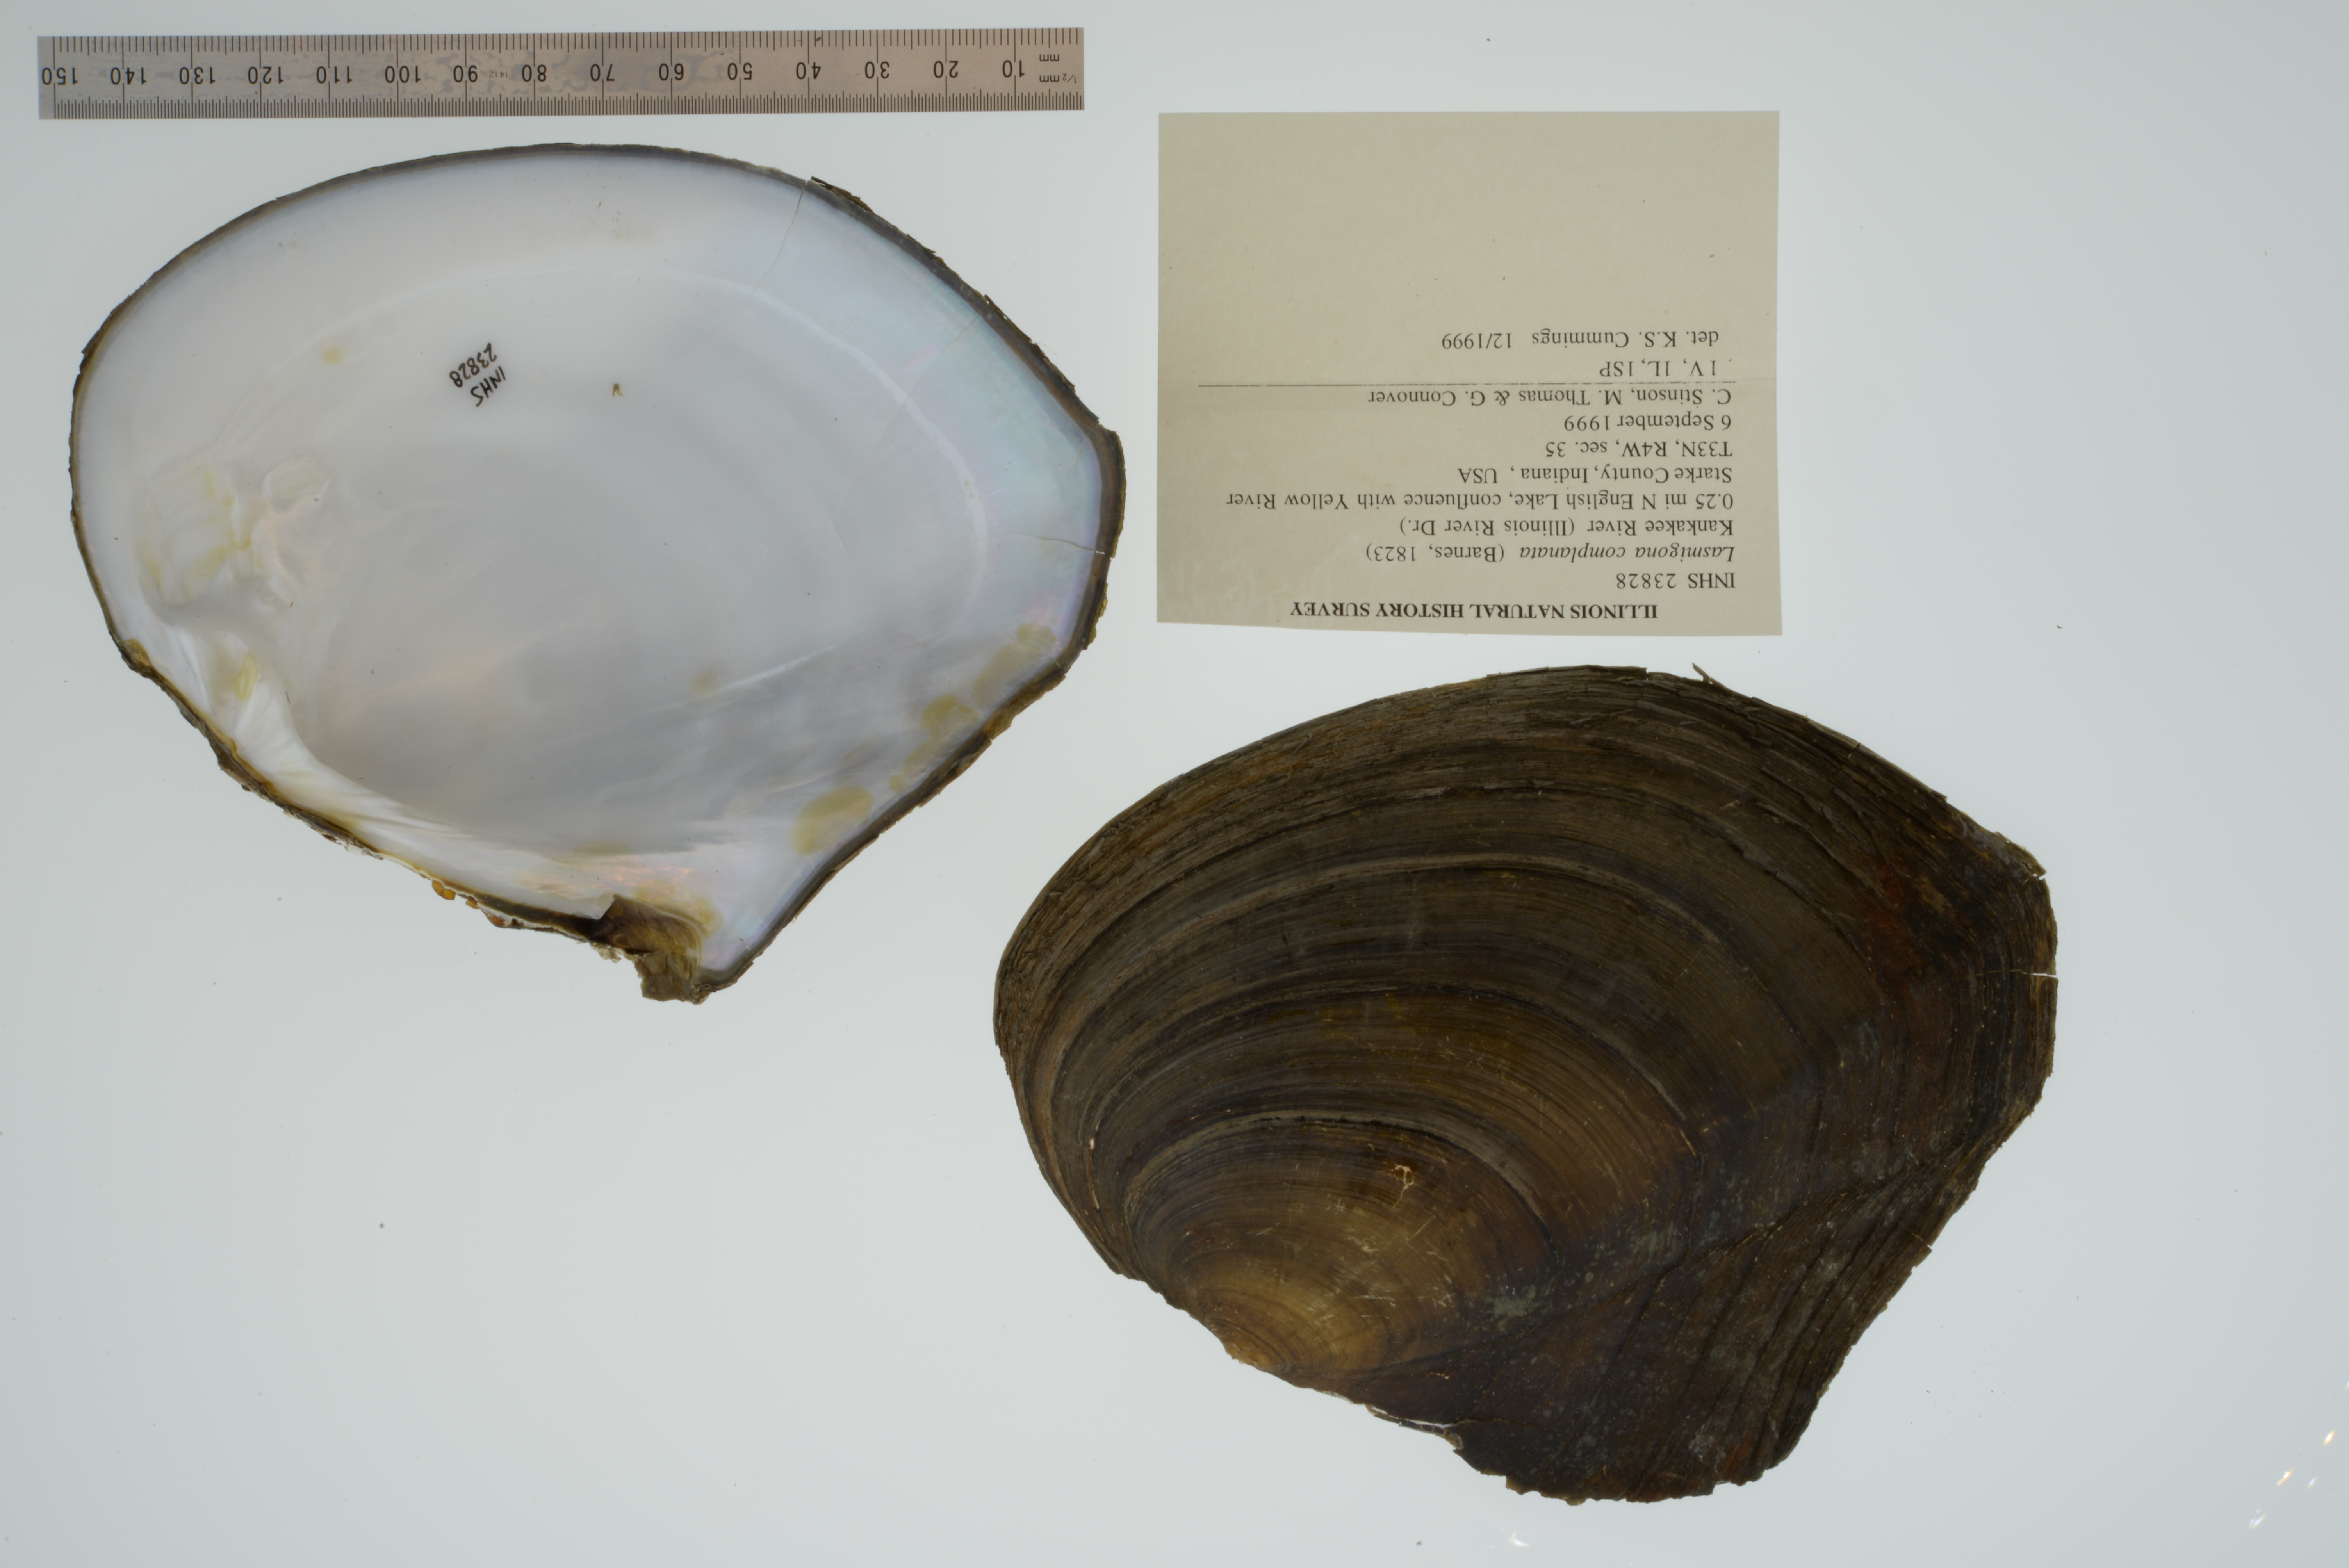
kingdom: Animalia
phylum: Mollusca
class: Bivalvia
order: Unionida
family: Unionidae
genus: Lasmigona
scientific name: Lasmigona complanata
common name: White heelsplitter
